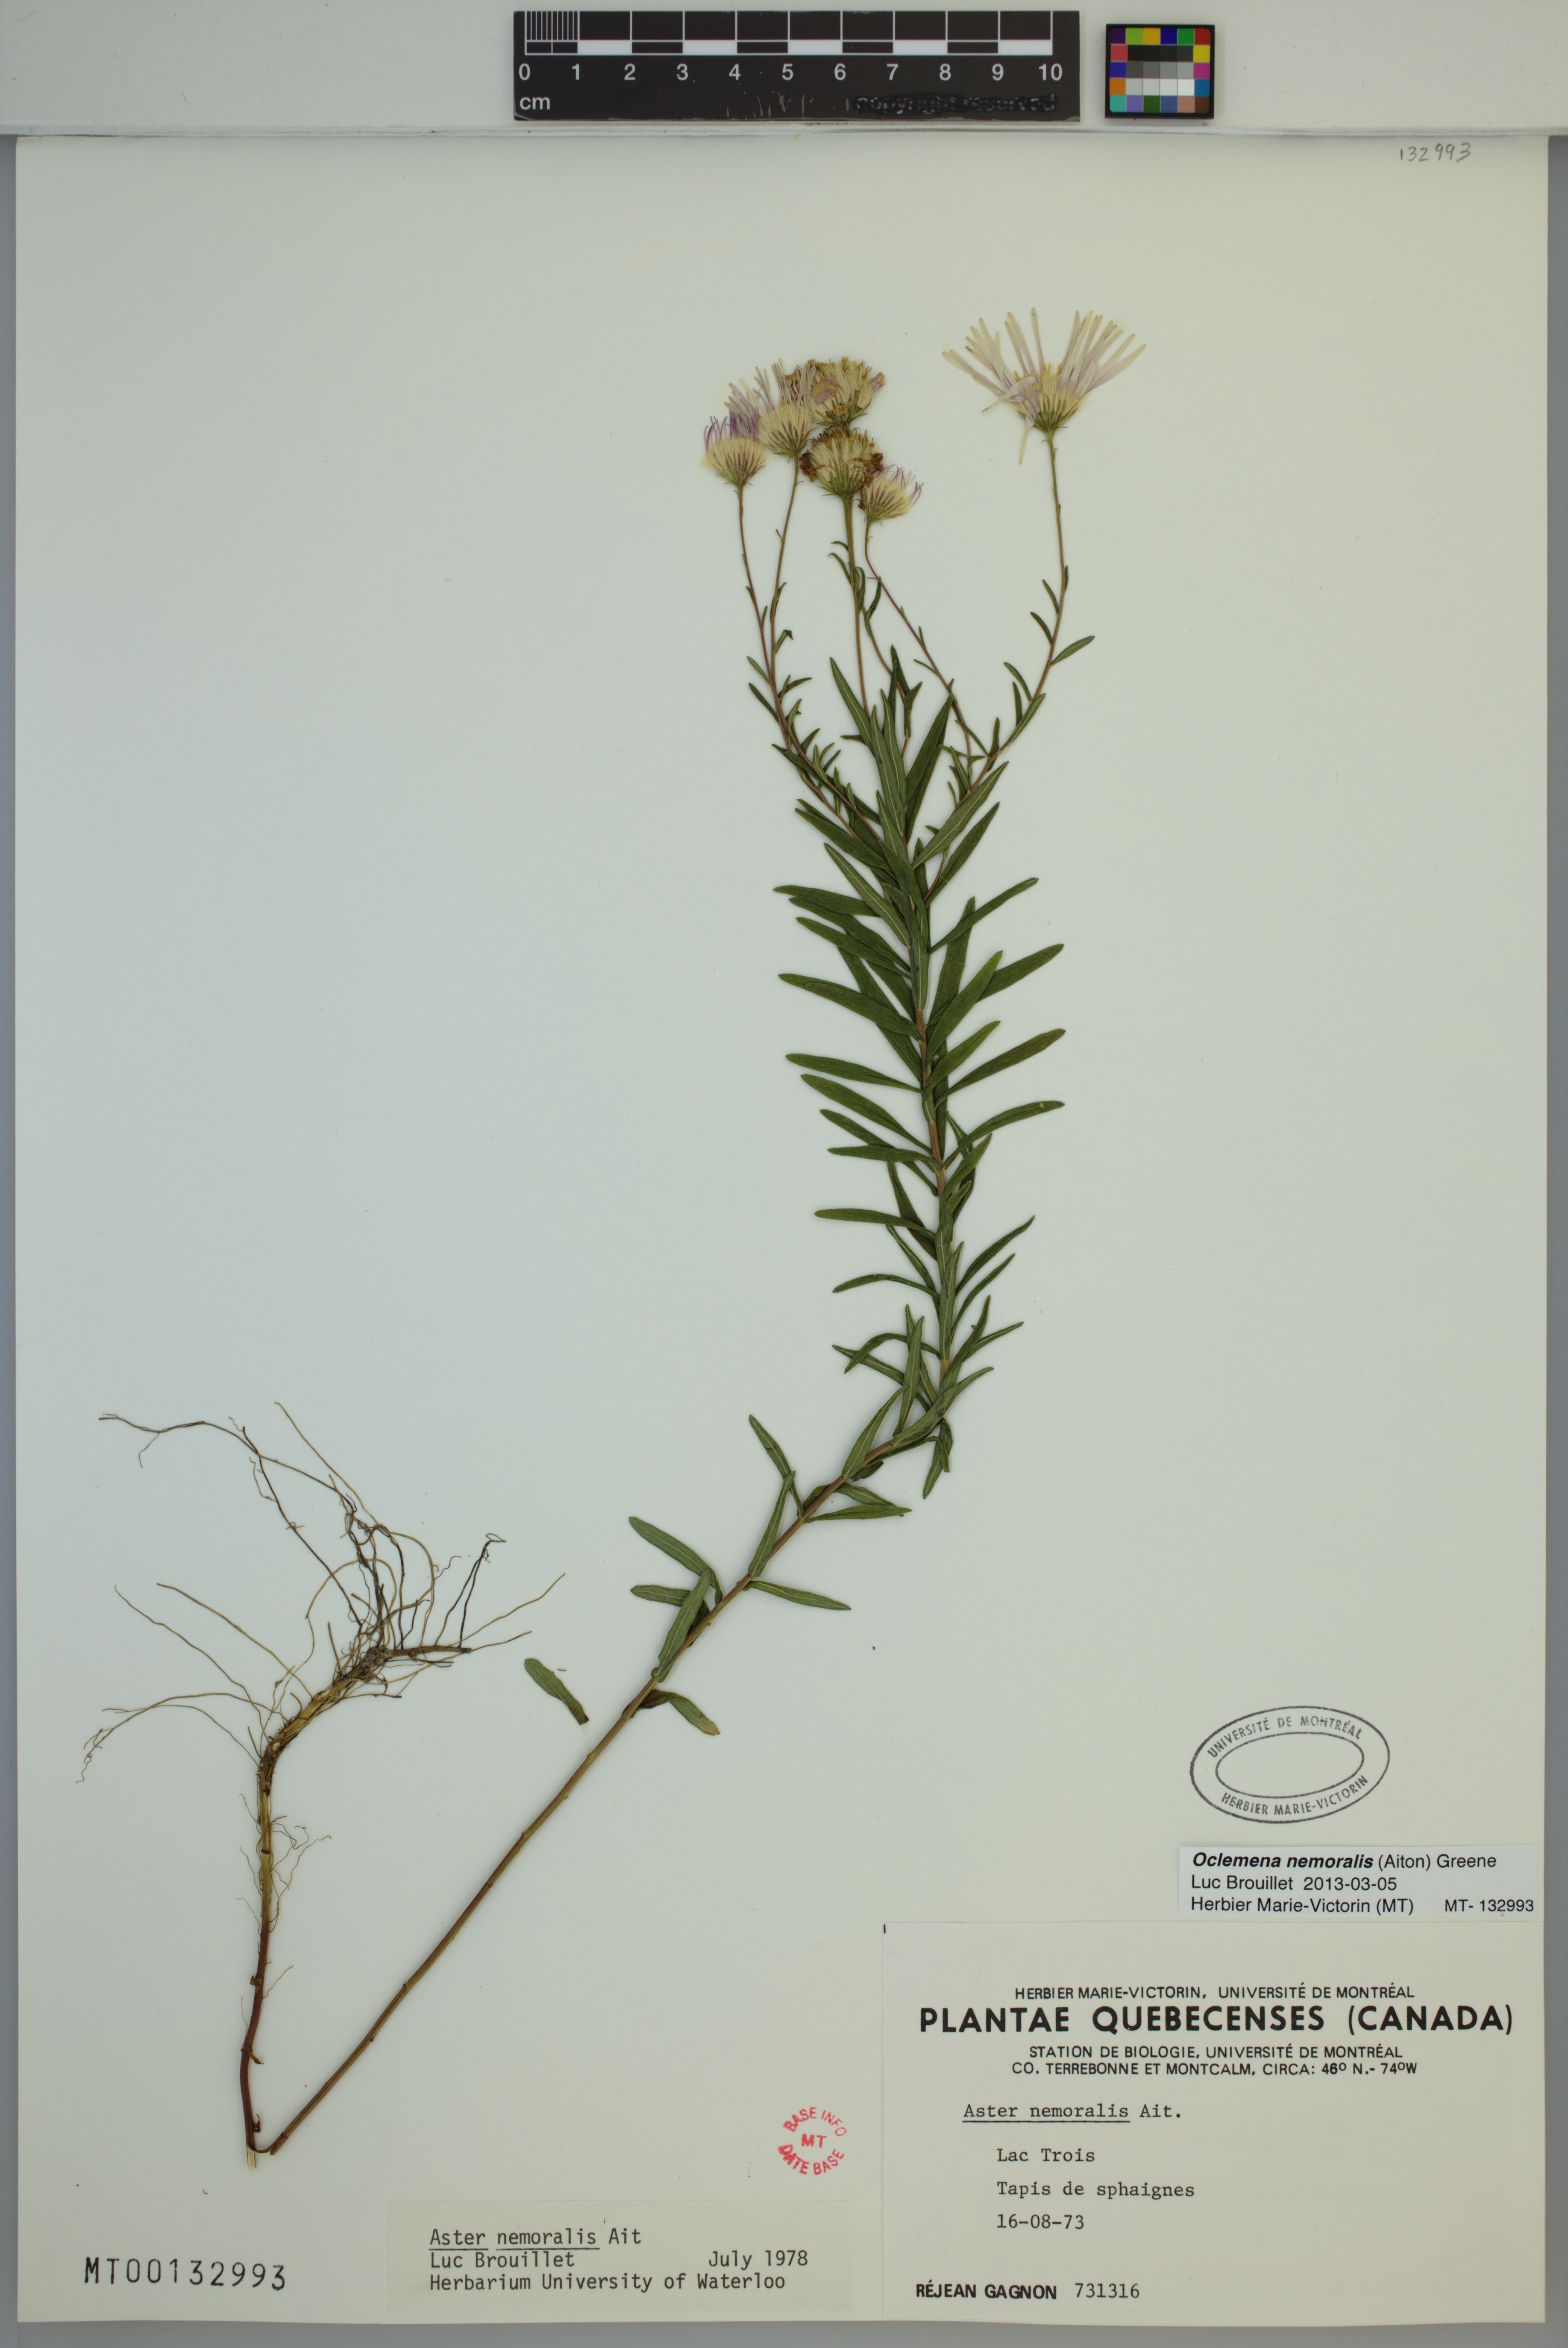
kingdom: Plantae
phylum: Tracheophyta
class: Magnoliopsida
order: Asterales
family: Asteraceae
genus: Oclemena
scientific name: Oclemena nemoralis
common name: Bog aster
